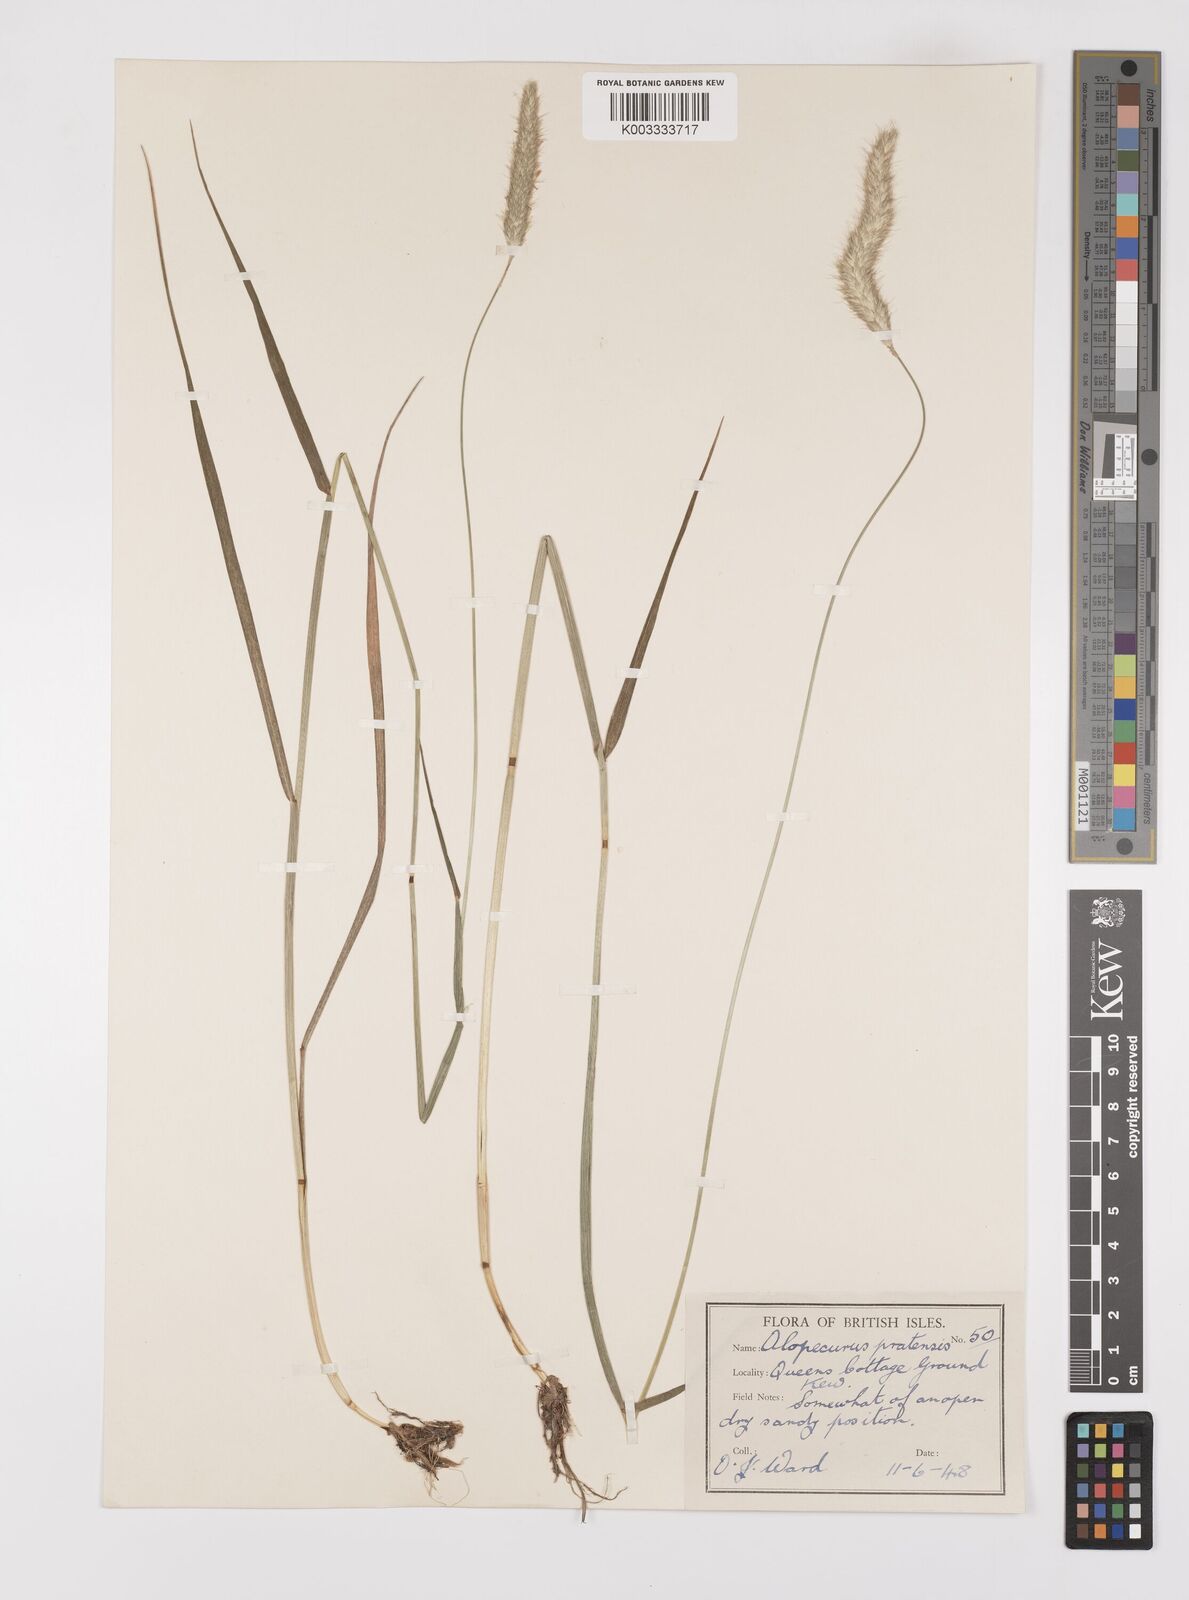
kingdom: Plantae
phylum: Tracheophyta
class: Liliopsida
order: Poales
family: Poaceae
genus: Alopecurus
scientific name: Alopecurus pratensis
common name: Meadow foxtail
